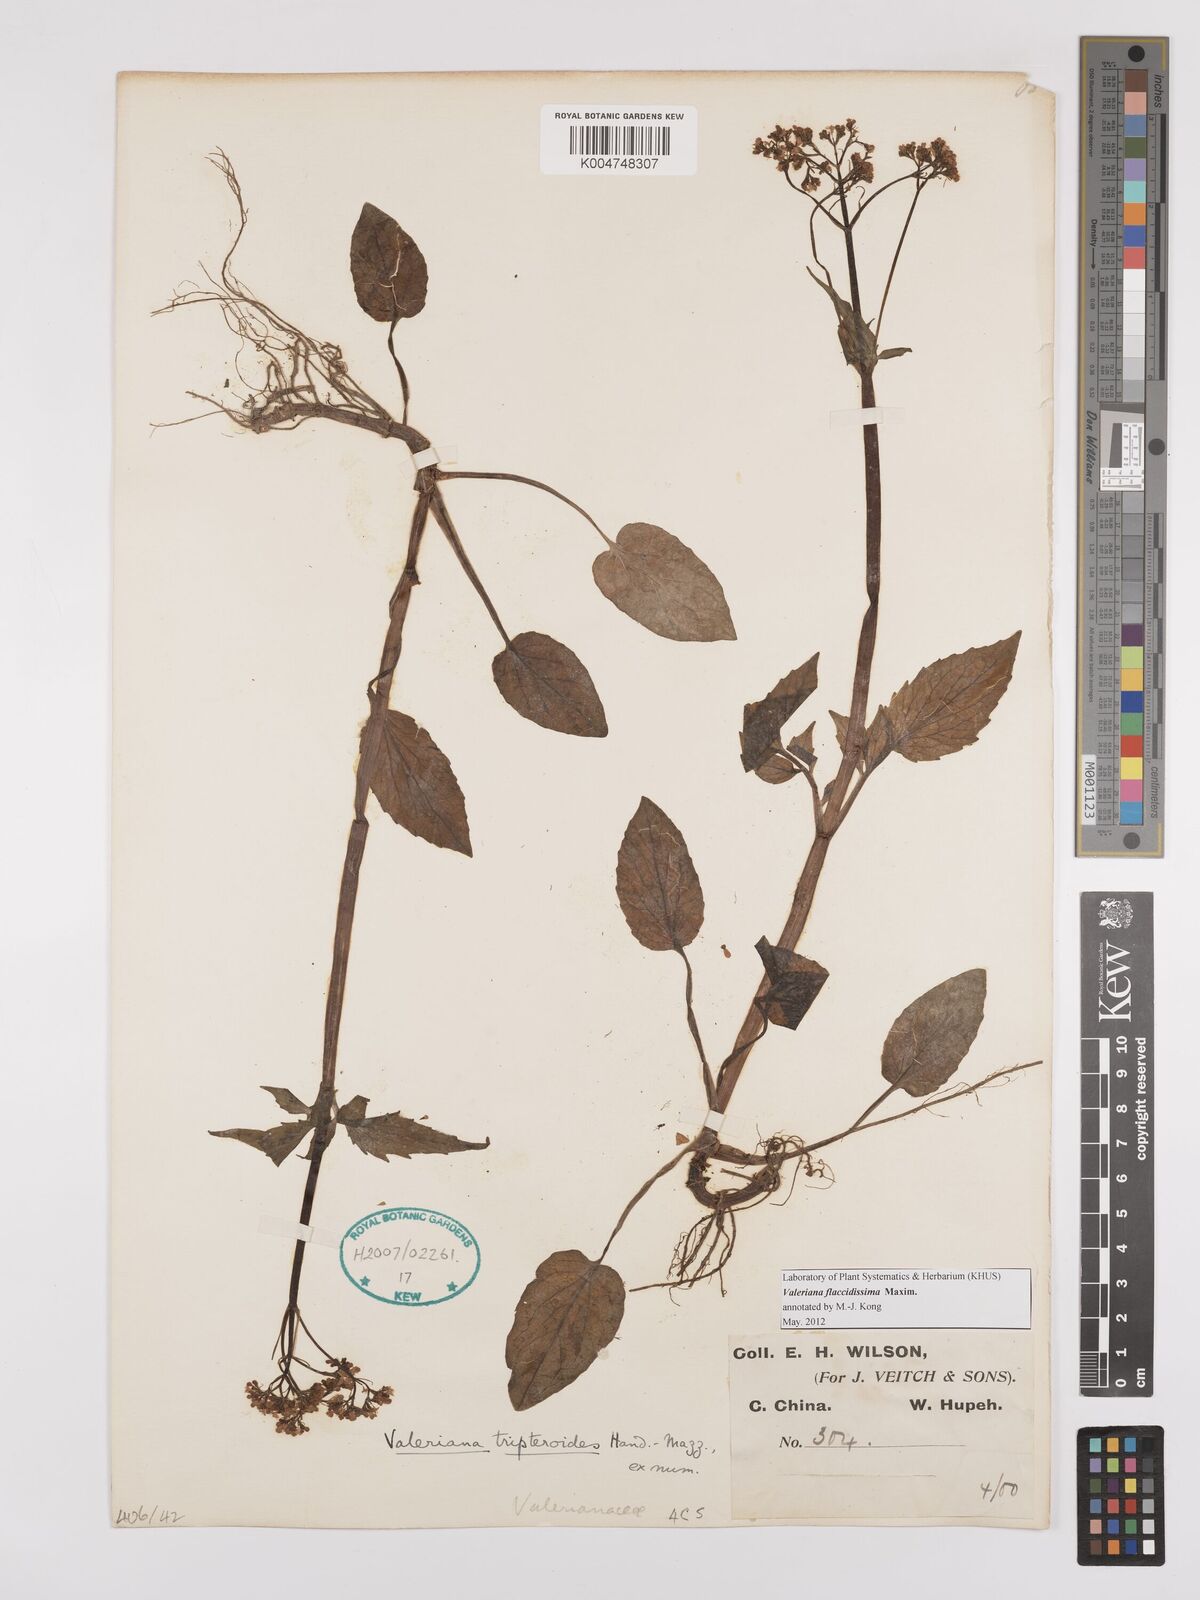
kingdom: Plantae
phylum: Tracheophyta
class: Magnoliopsida
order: Dipsacales
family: Caprifoliaceae
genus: Valeriana
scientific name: Valeriana flaccidissima
